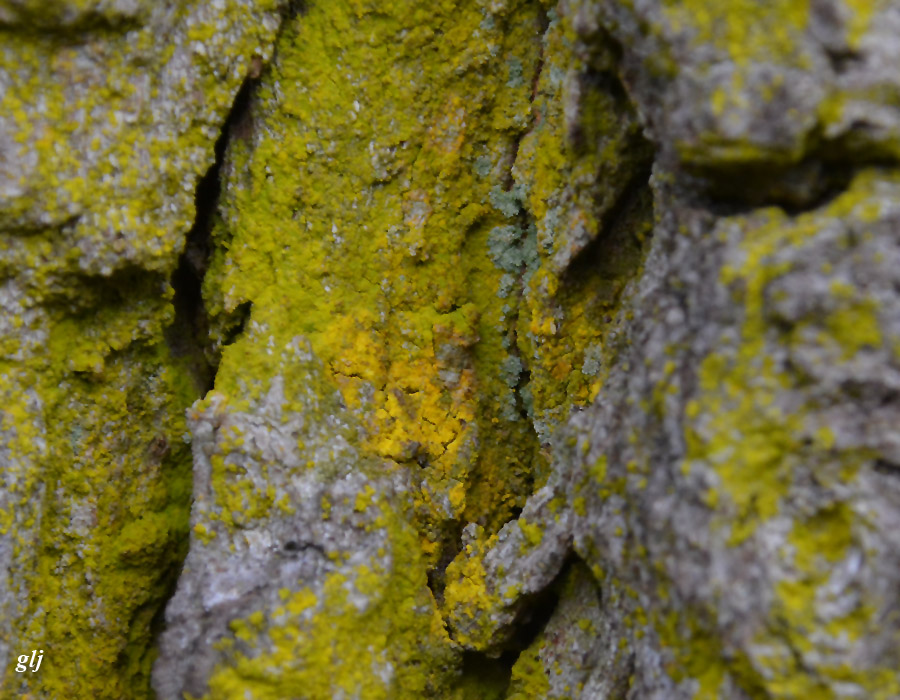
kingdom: Fungi
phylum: Ascomycota
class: Arthoniomycetes
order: Arthoniales
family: Chrysotrichaceae
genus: Chrysothrix
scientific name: Chrysothrix candelaris
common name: gul støvlav
